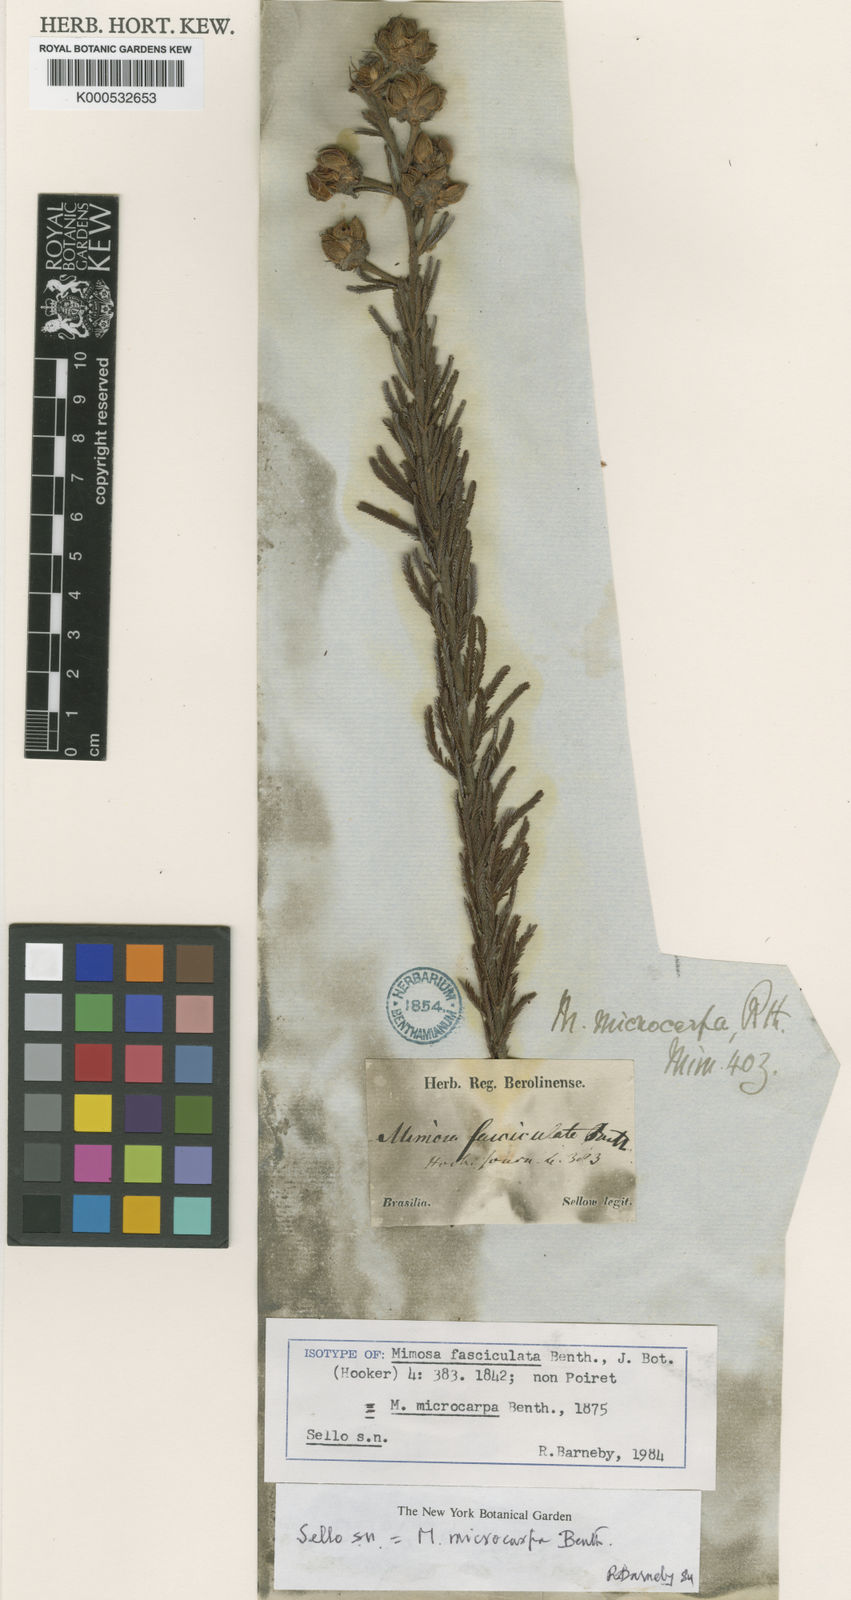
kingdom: Plantae
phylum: Tracheophyta
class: Magnoliopsida
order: Fabales
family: Fabaceae
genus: Mimosa
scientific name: Mimosa microcarpa
